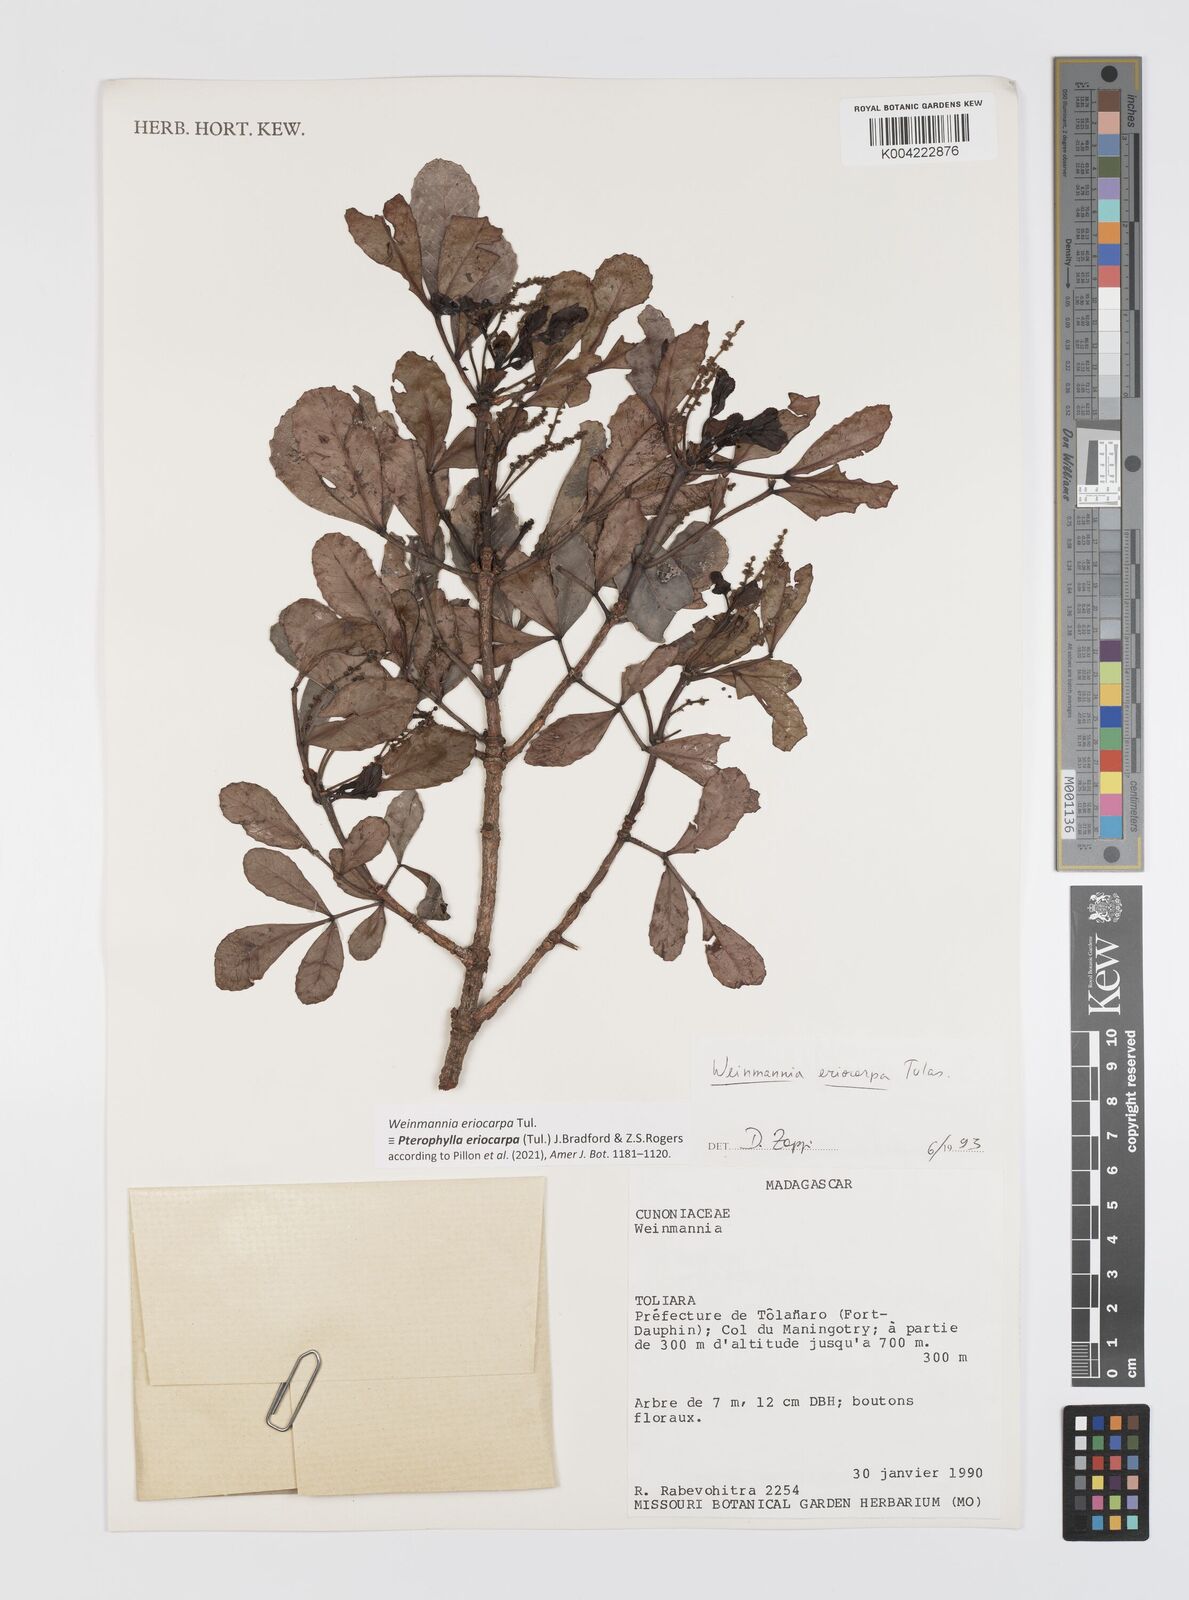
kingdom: Plantae
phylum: Tracheophyta
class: Magnoliopsida
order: Oxalidales
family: Cunoniaceae
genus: Pterophylla
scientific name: Pterophylla eriocarpa
